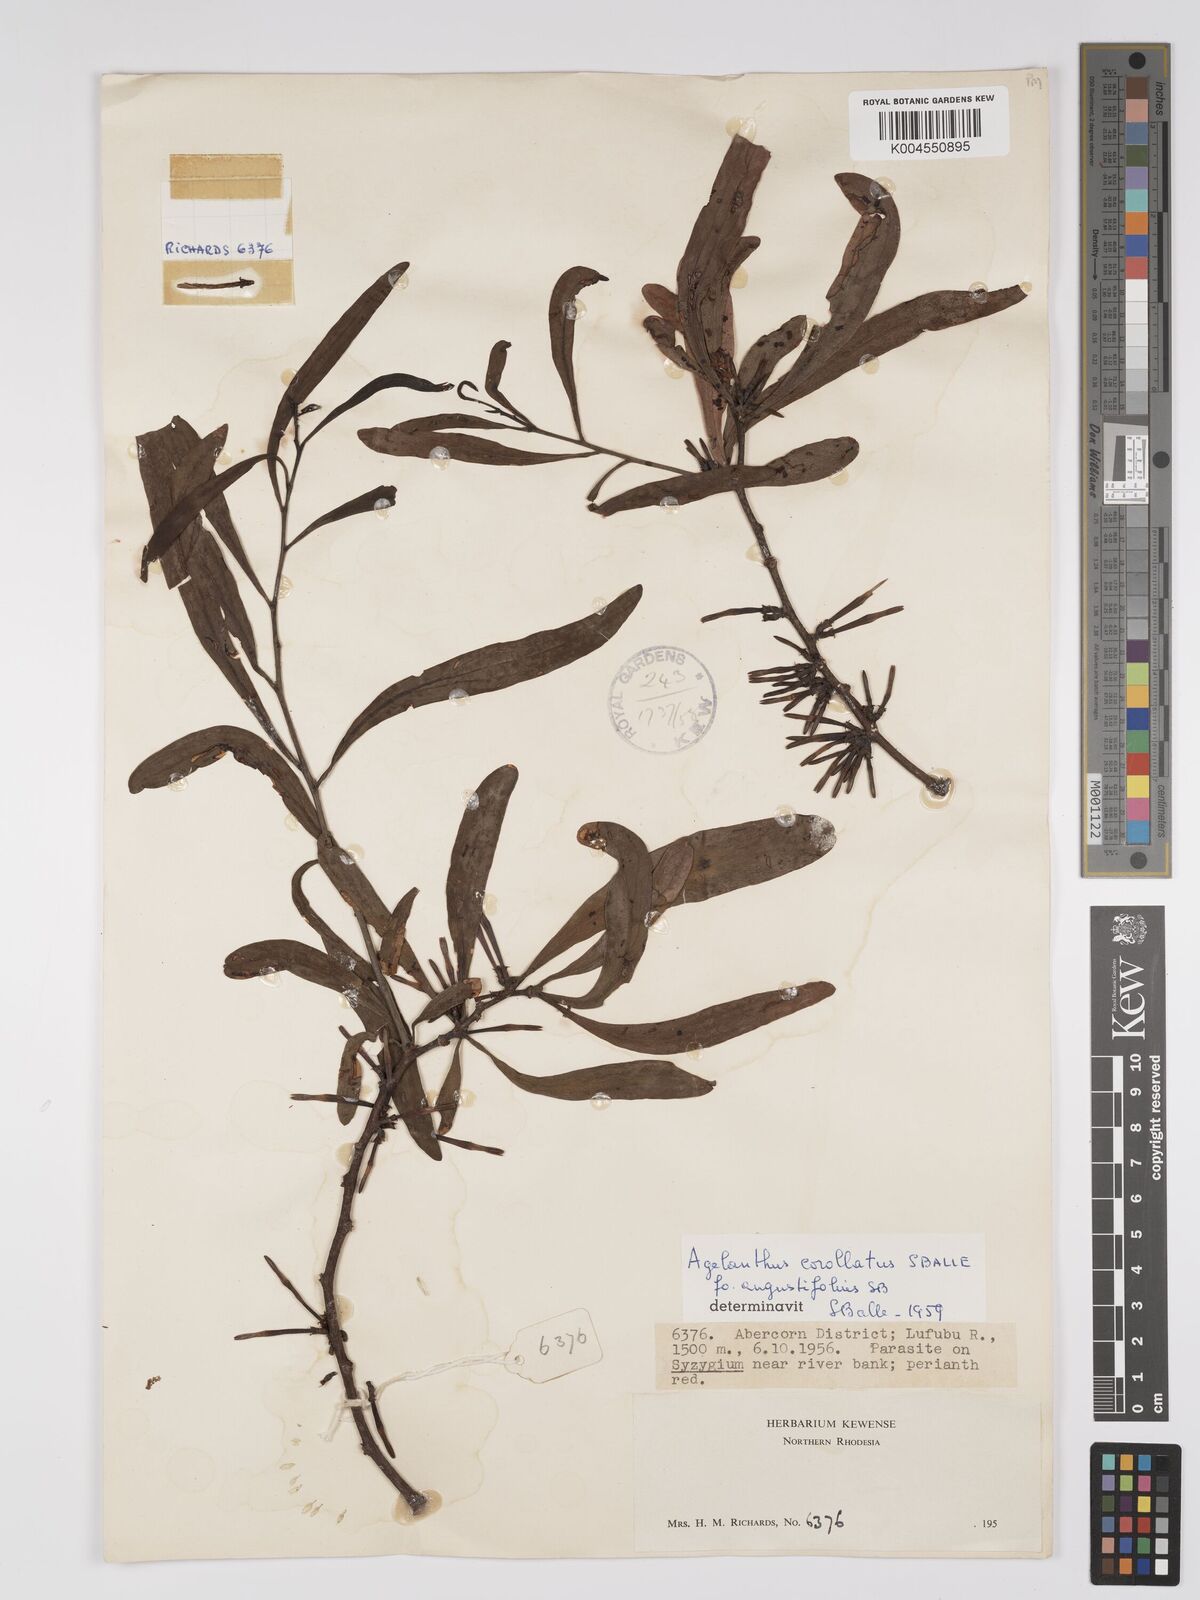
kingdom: Plantae
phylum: Tracheophyta
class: Magnoliopsida
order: Santalales
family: Loranthaceae
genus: Agelanthus
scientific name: Agelanthus zizyphifolius
